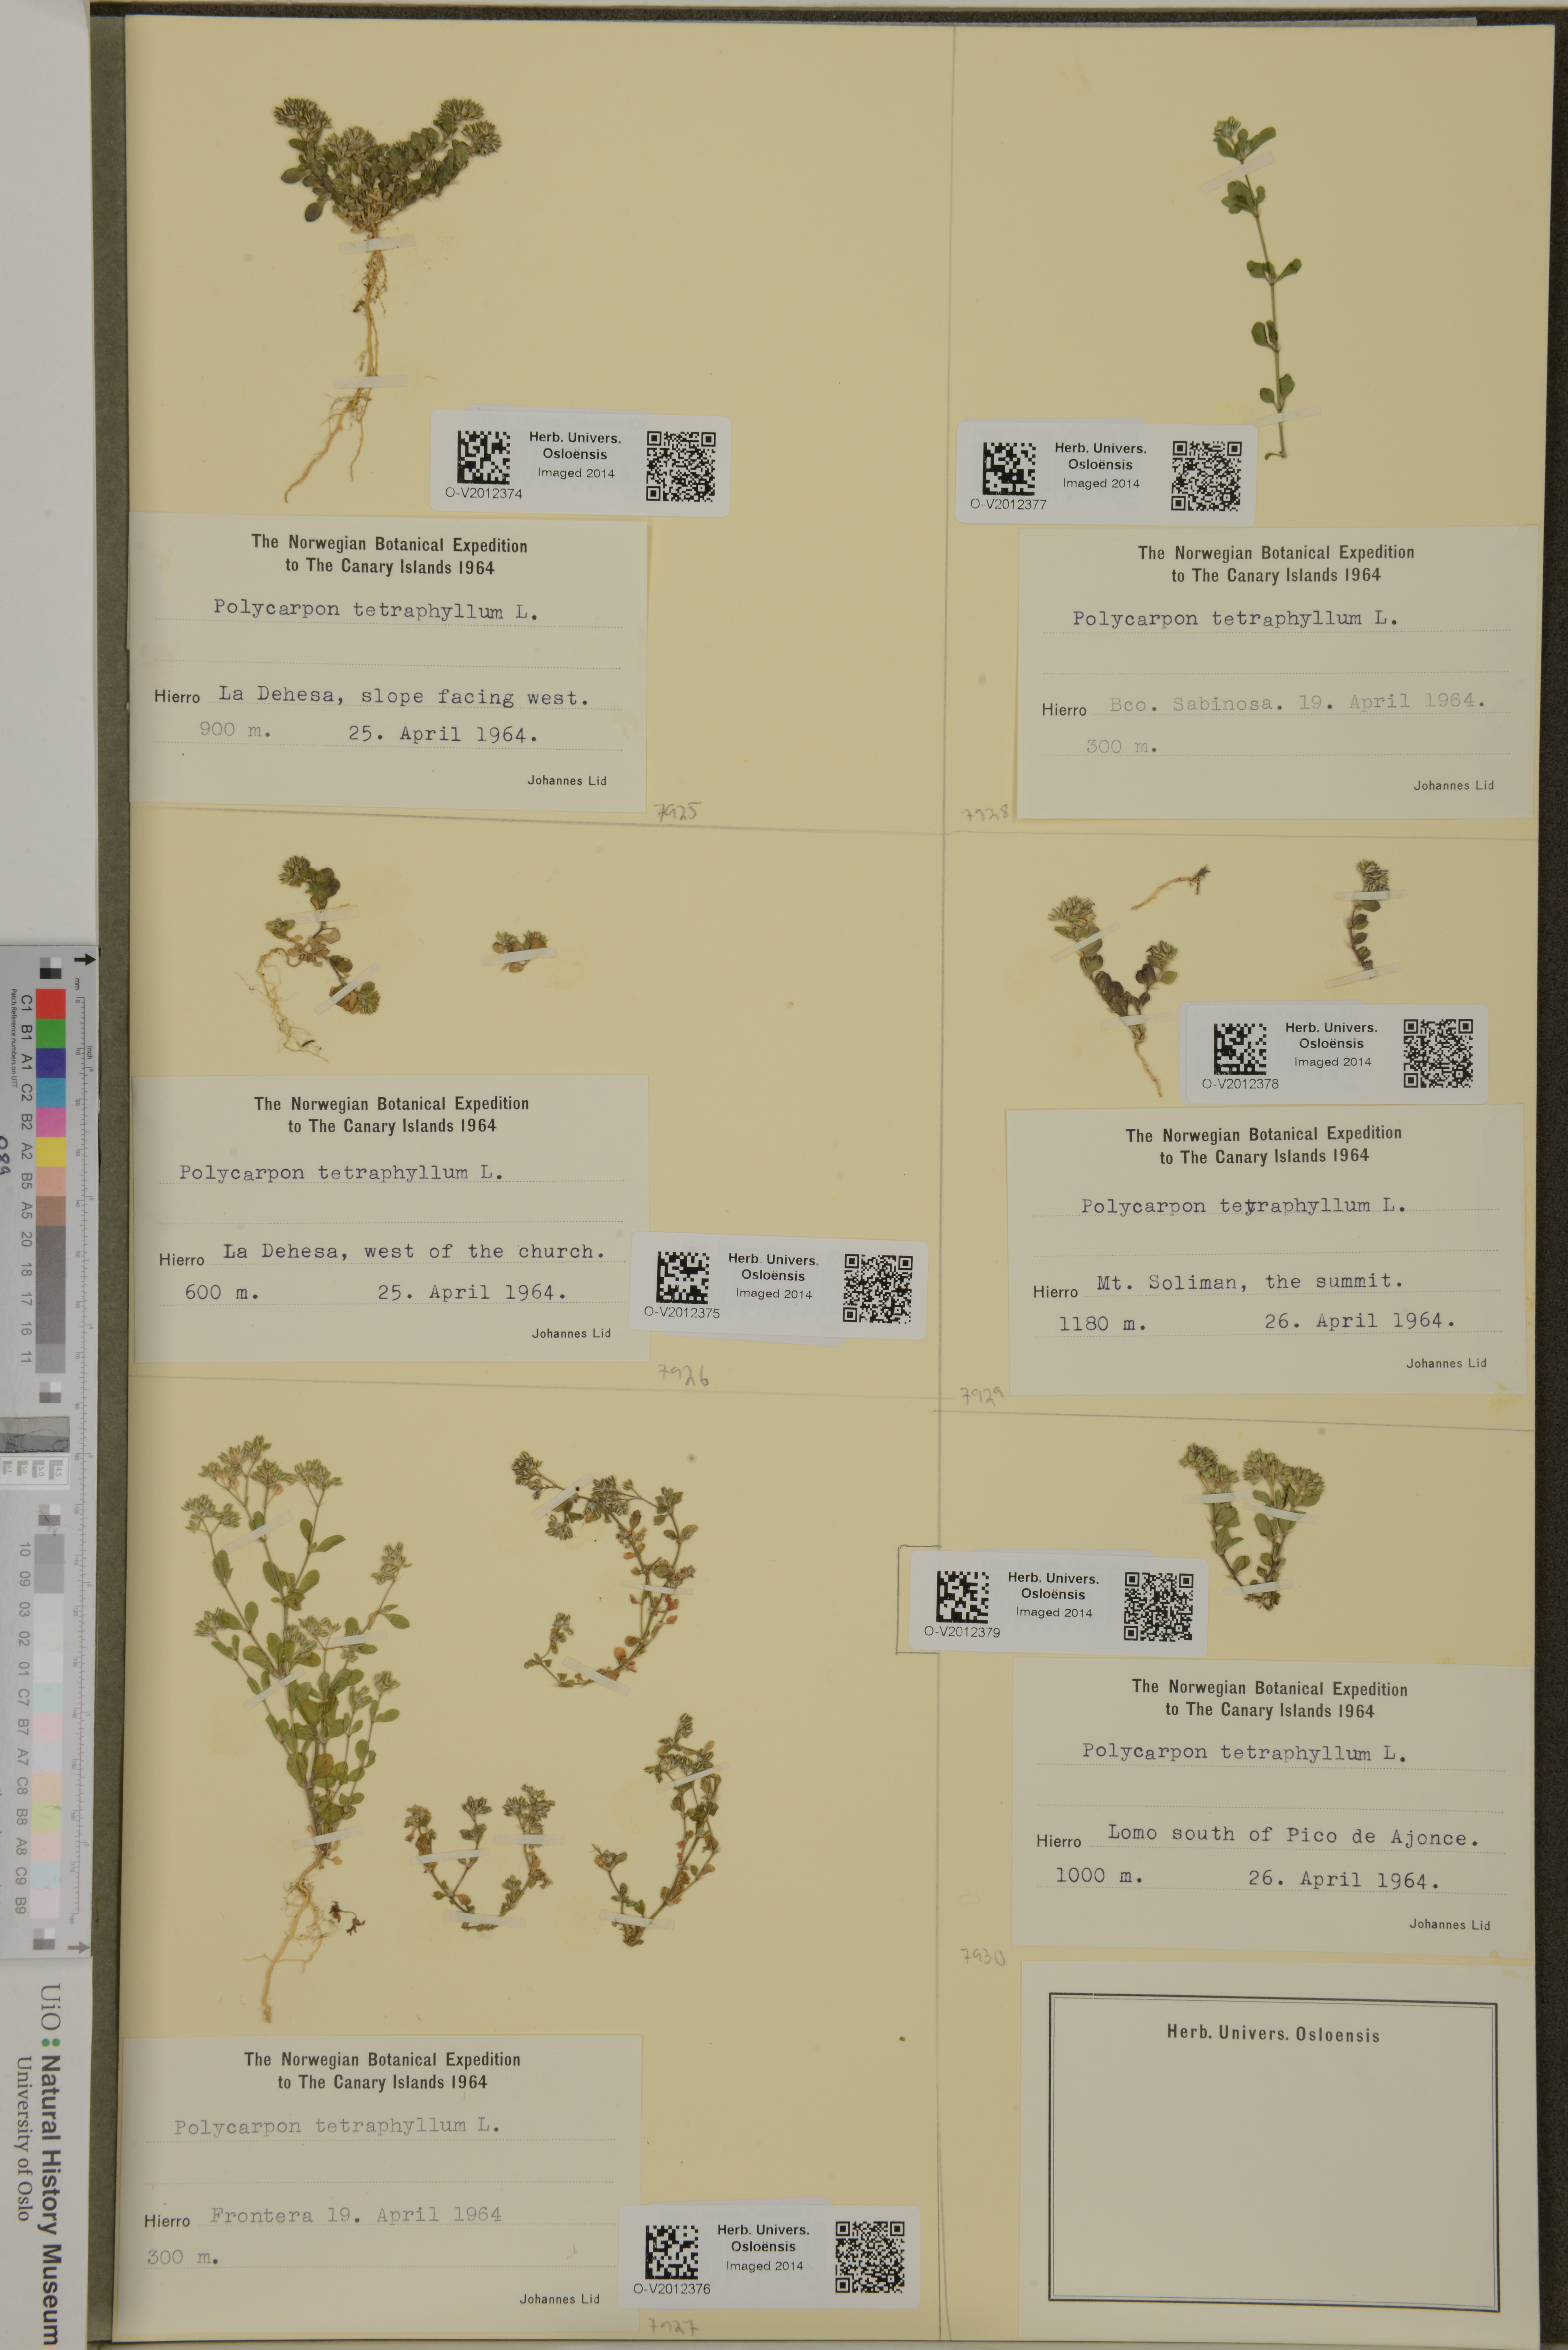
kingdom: Plantae
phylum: Tracheophyta
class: Magnoliopsida
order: Caryophyllales
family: Caryophyllaceae
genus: Polycarpon
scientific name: Polycarpon tetraphyllum
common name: Four-leaved all-seed
